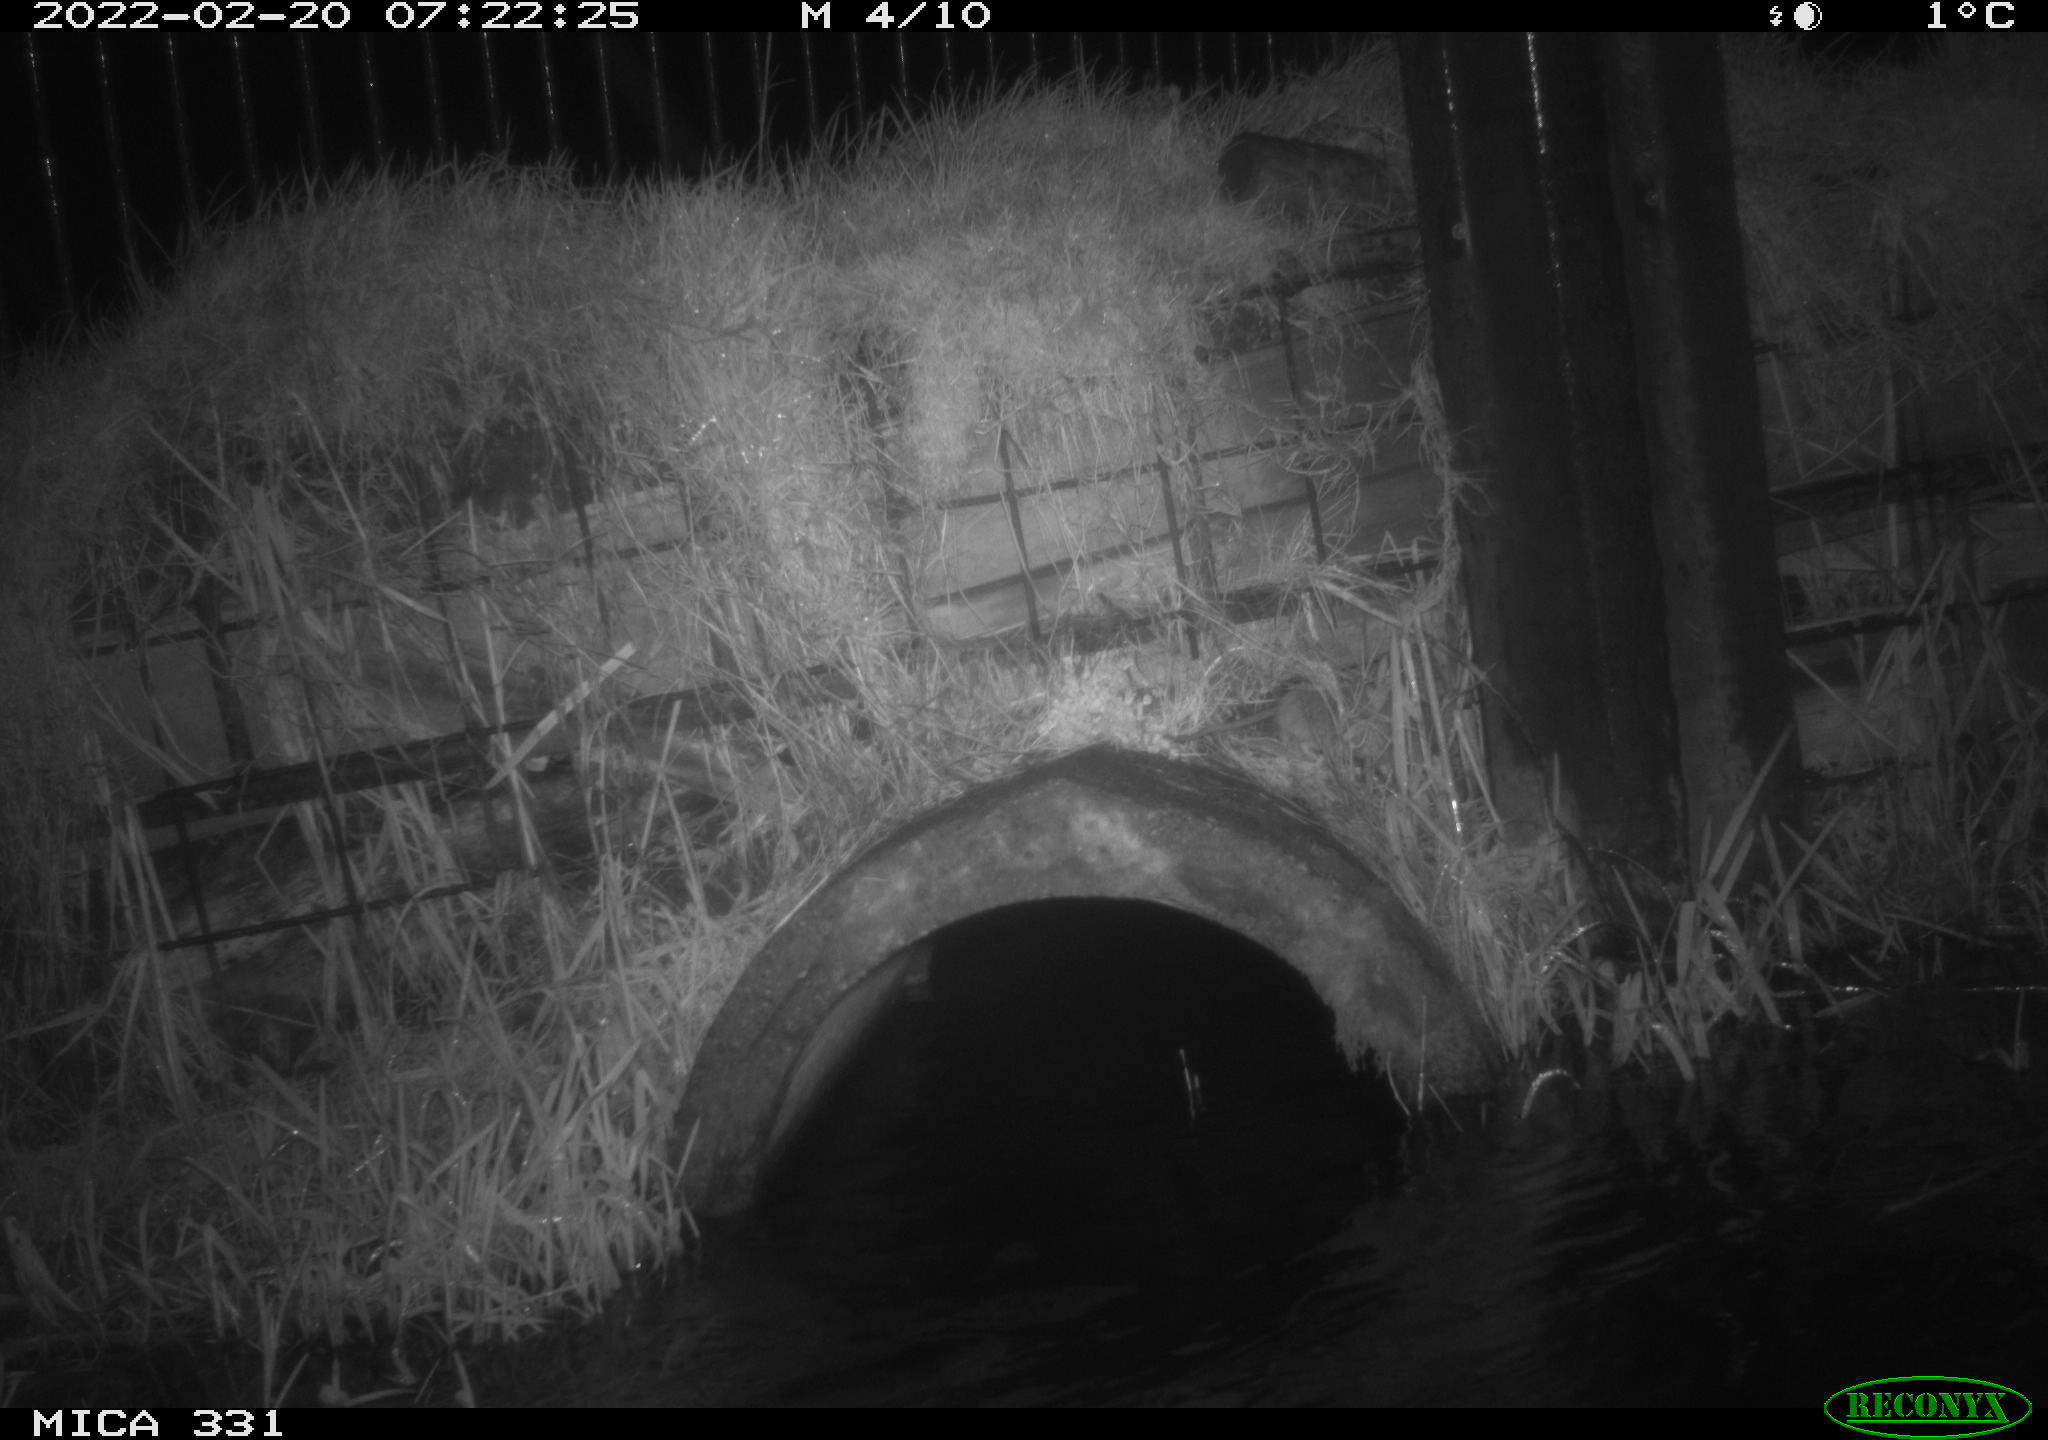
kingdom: Animalia
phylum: Chordata
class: Mammalia
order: Rodentia
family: Muridae
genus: Rattus
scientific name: Rattus norvegicus
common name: Brown rat
